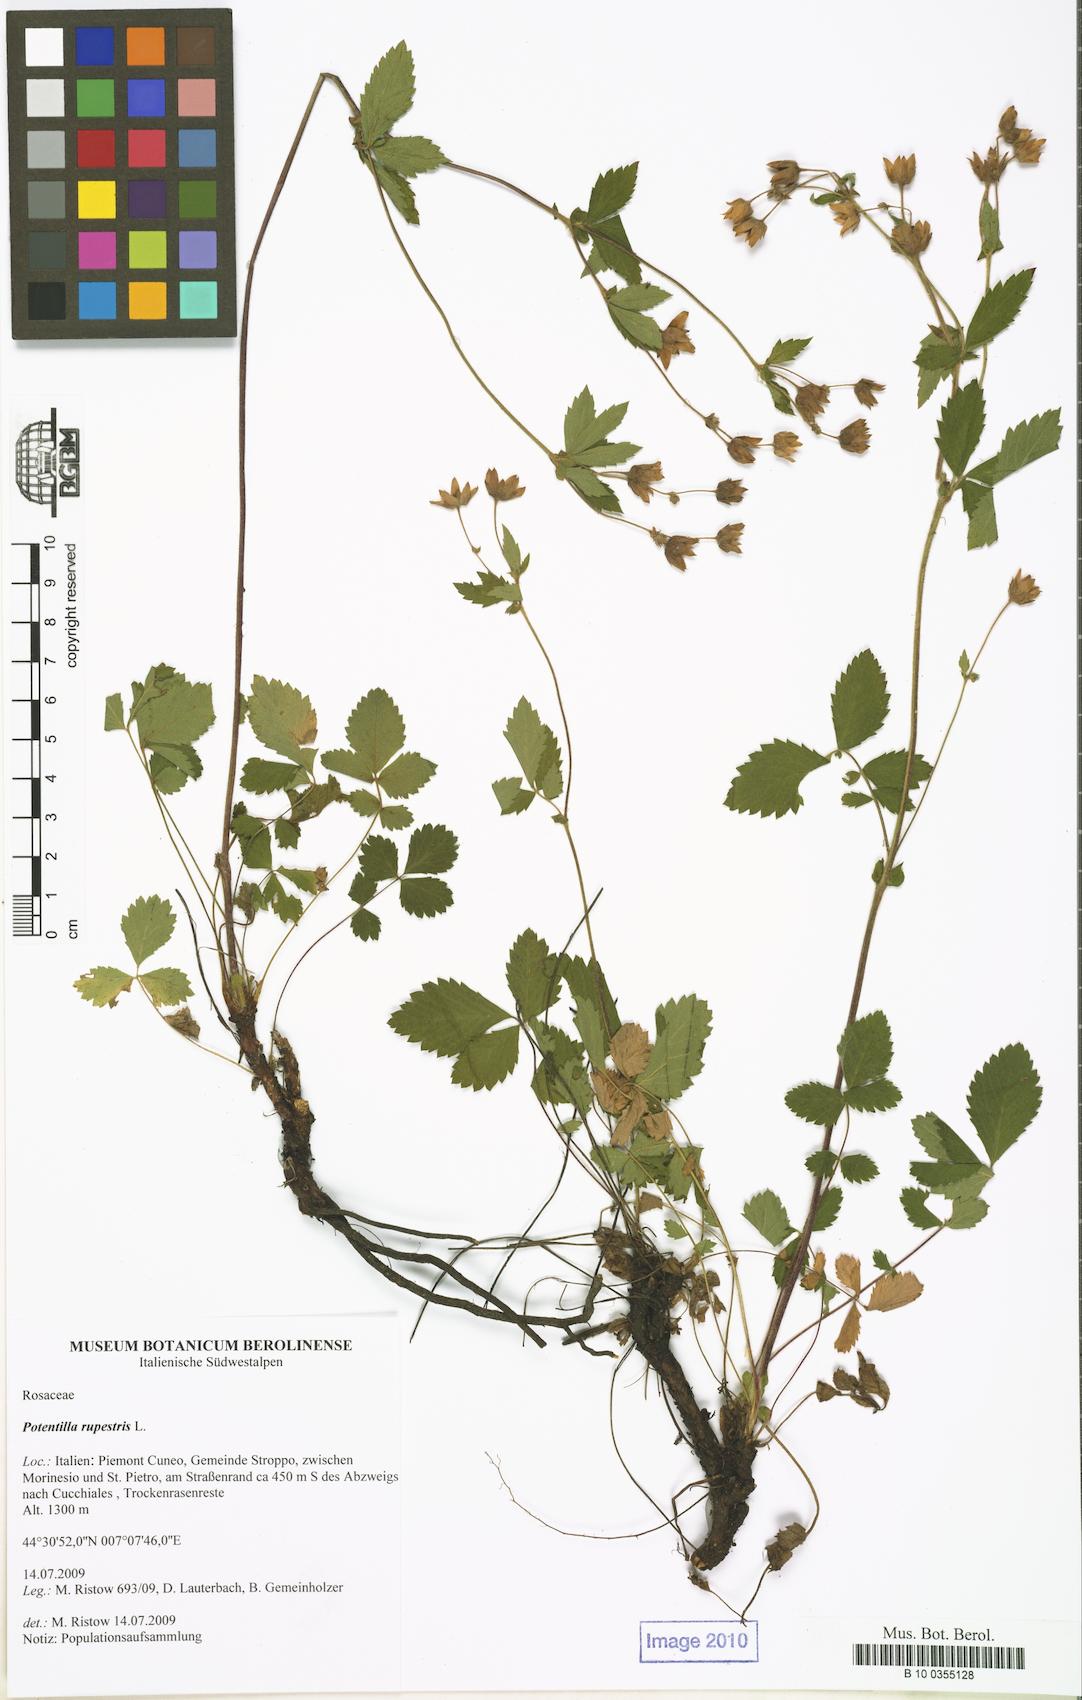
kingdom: Plantae
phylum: Tracheophyta
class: Magnoliopsida
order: Rosales
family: Rosaceae
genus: Drymocallis
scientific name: Drymocallis rupestris
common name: Rock cinquefoil
